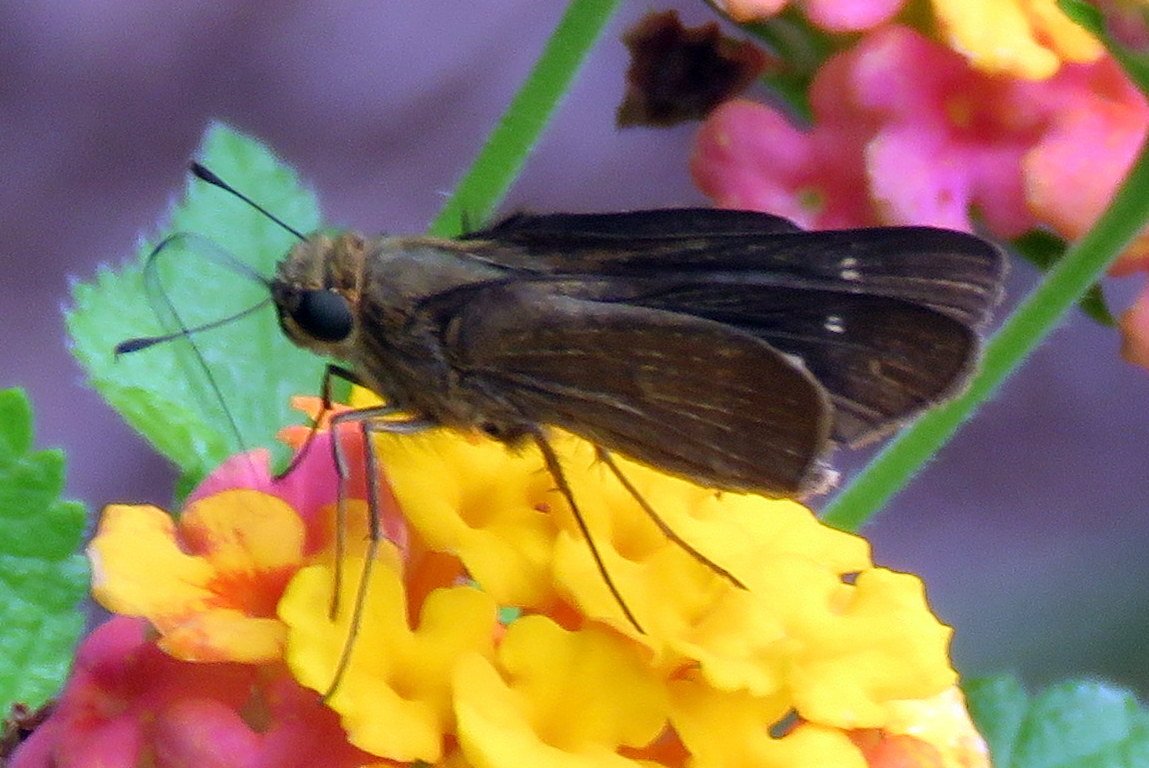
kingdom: Animalia
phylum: Arthropoda
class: Insecta
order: Lepidoptera
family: Hesperiidae
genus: Vernia
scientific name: Vernia verna
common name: Little Glassywing
